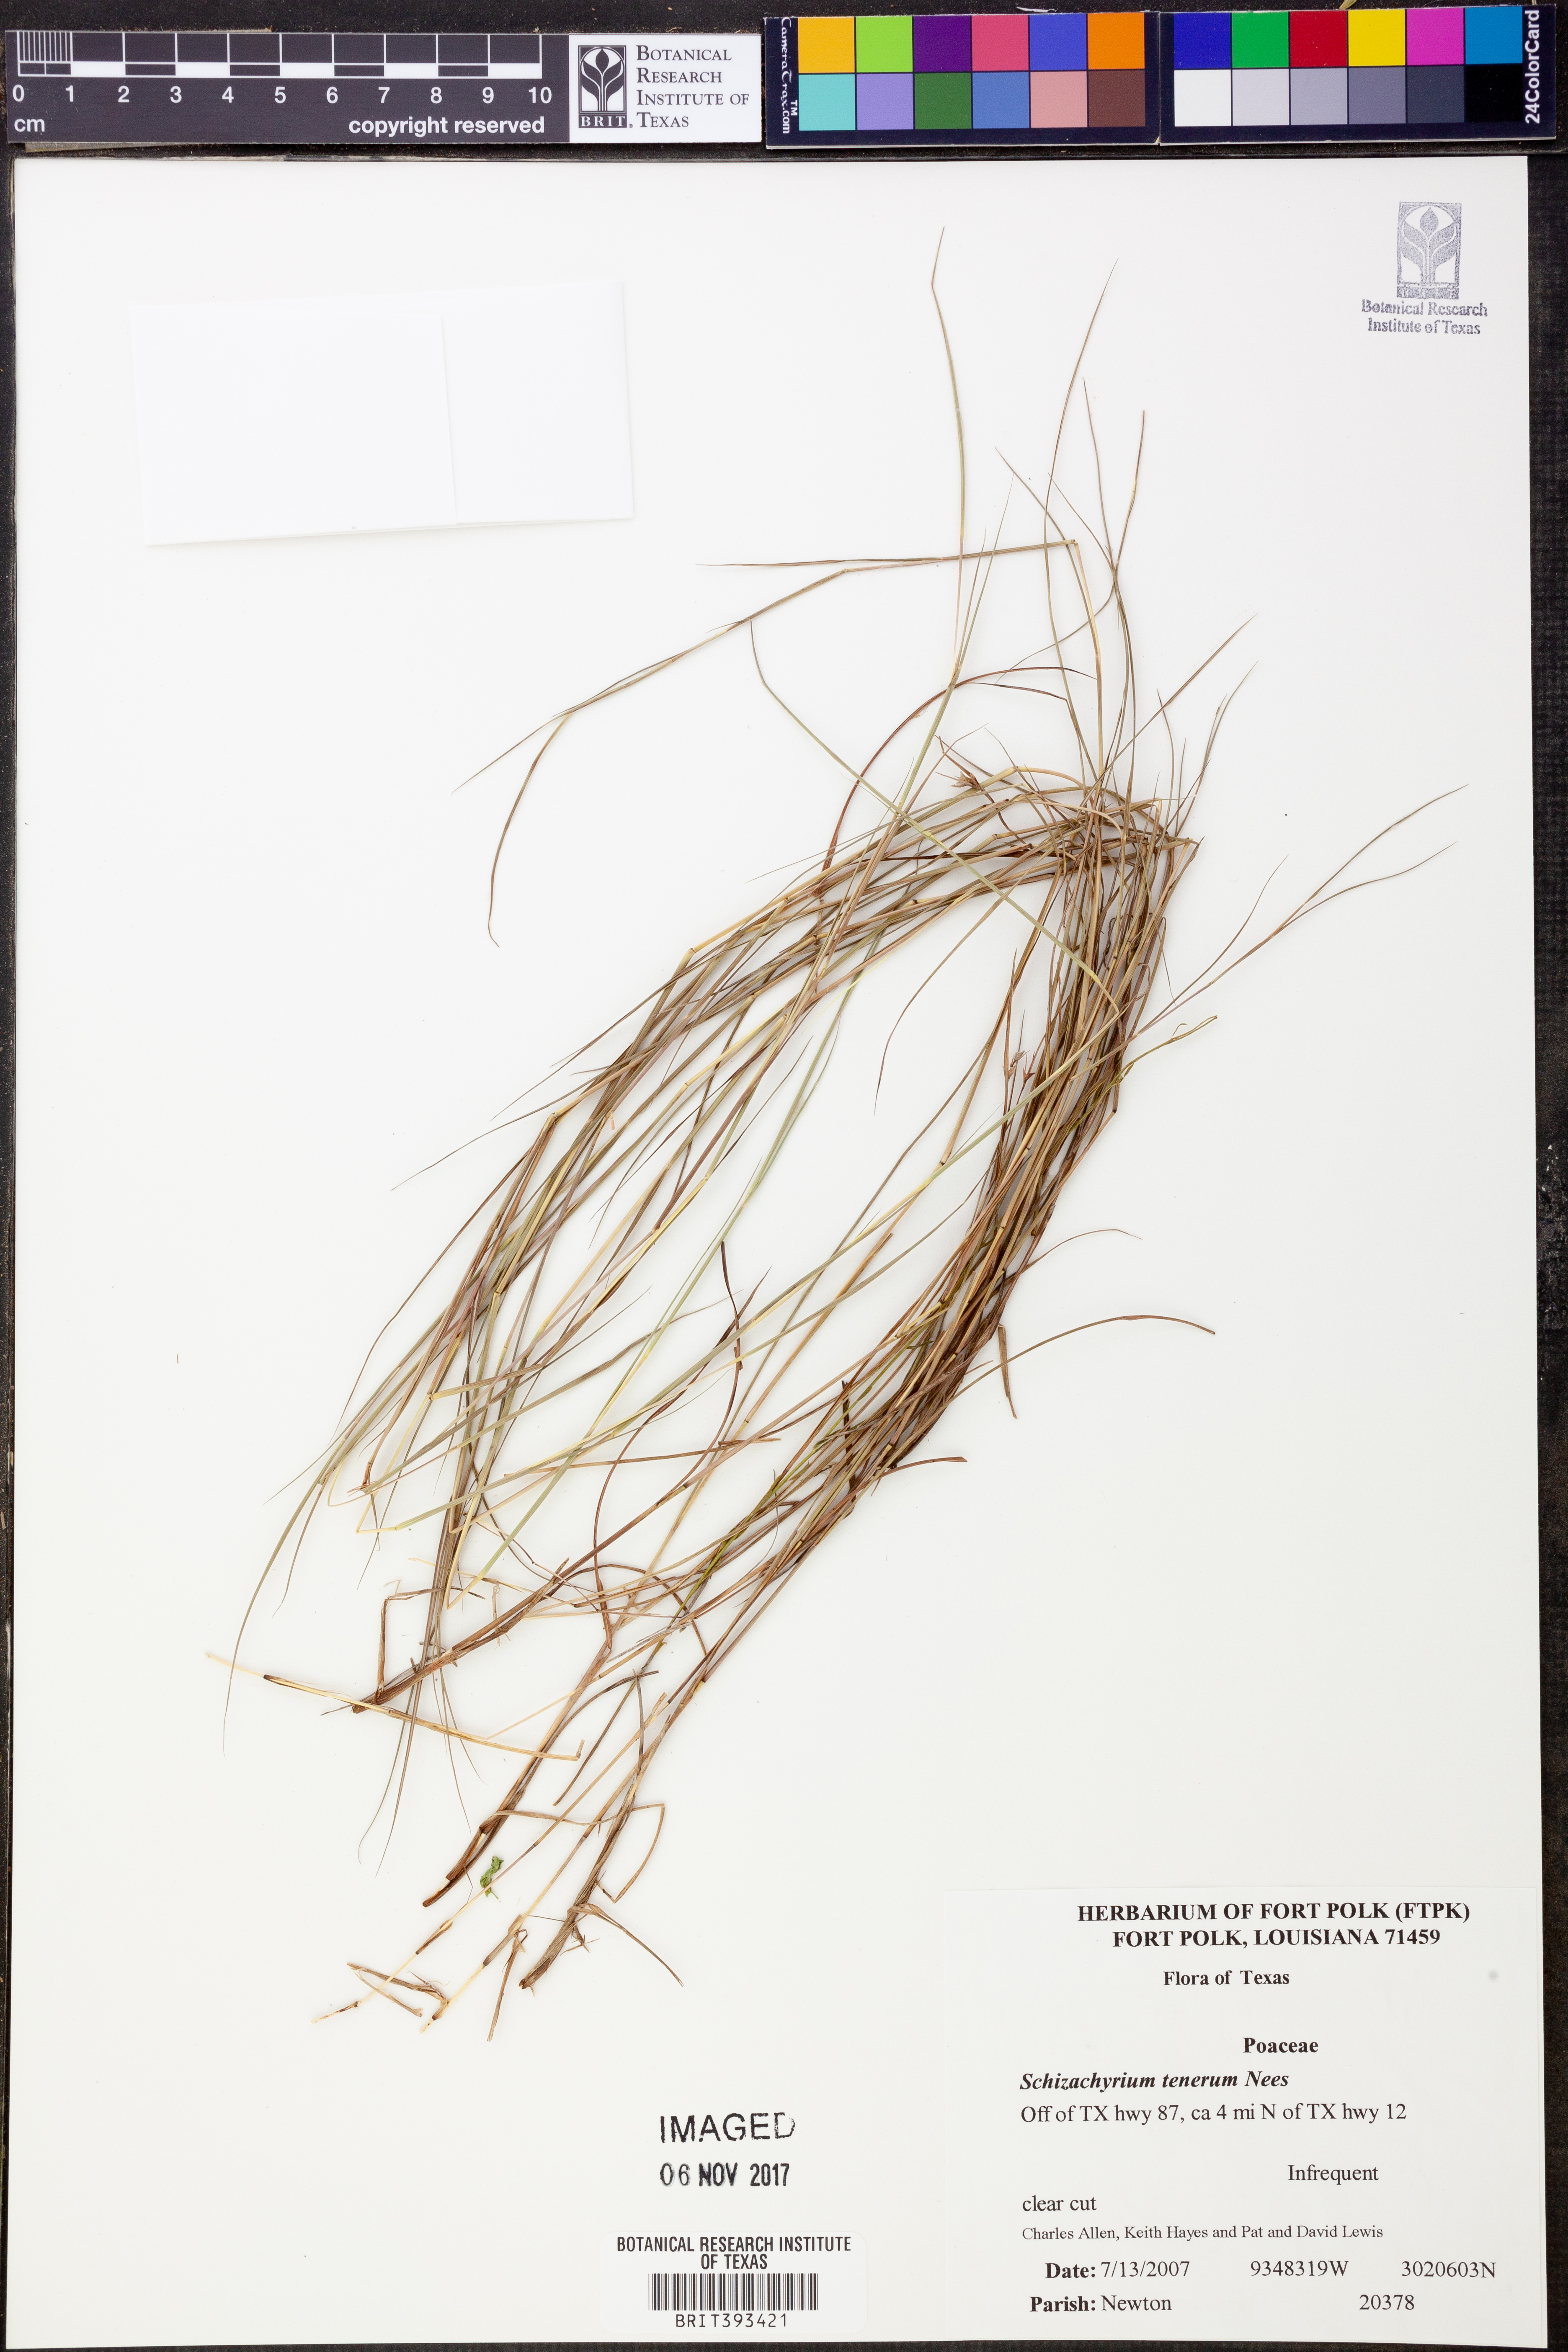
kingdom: Plantae
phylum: Tracheophyta
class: Liliopsida
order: Poales
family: Poaceae
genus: Andropogon
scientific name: Andropogon tener
